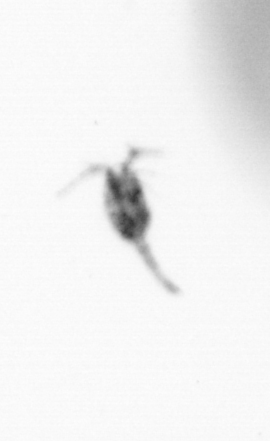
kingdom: Animalia
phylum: Arthropoda
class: Copepoda
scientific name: Copepoda
